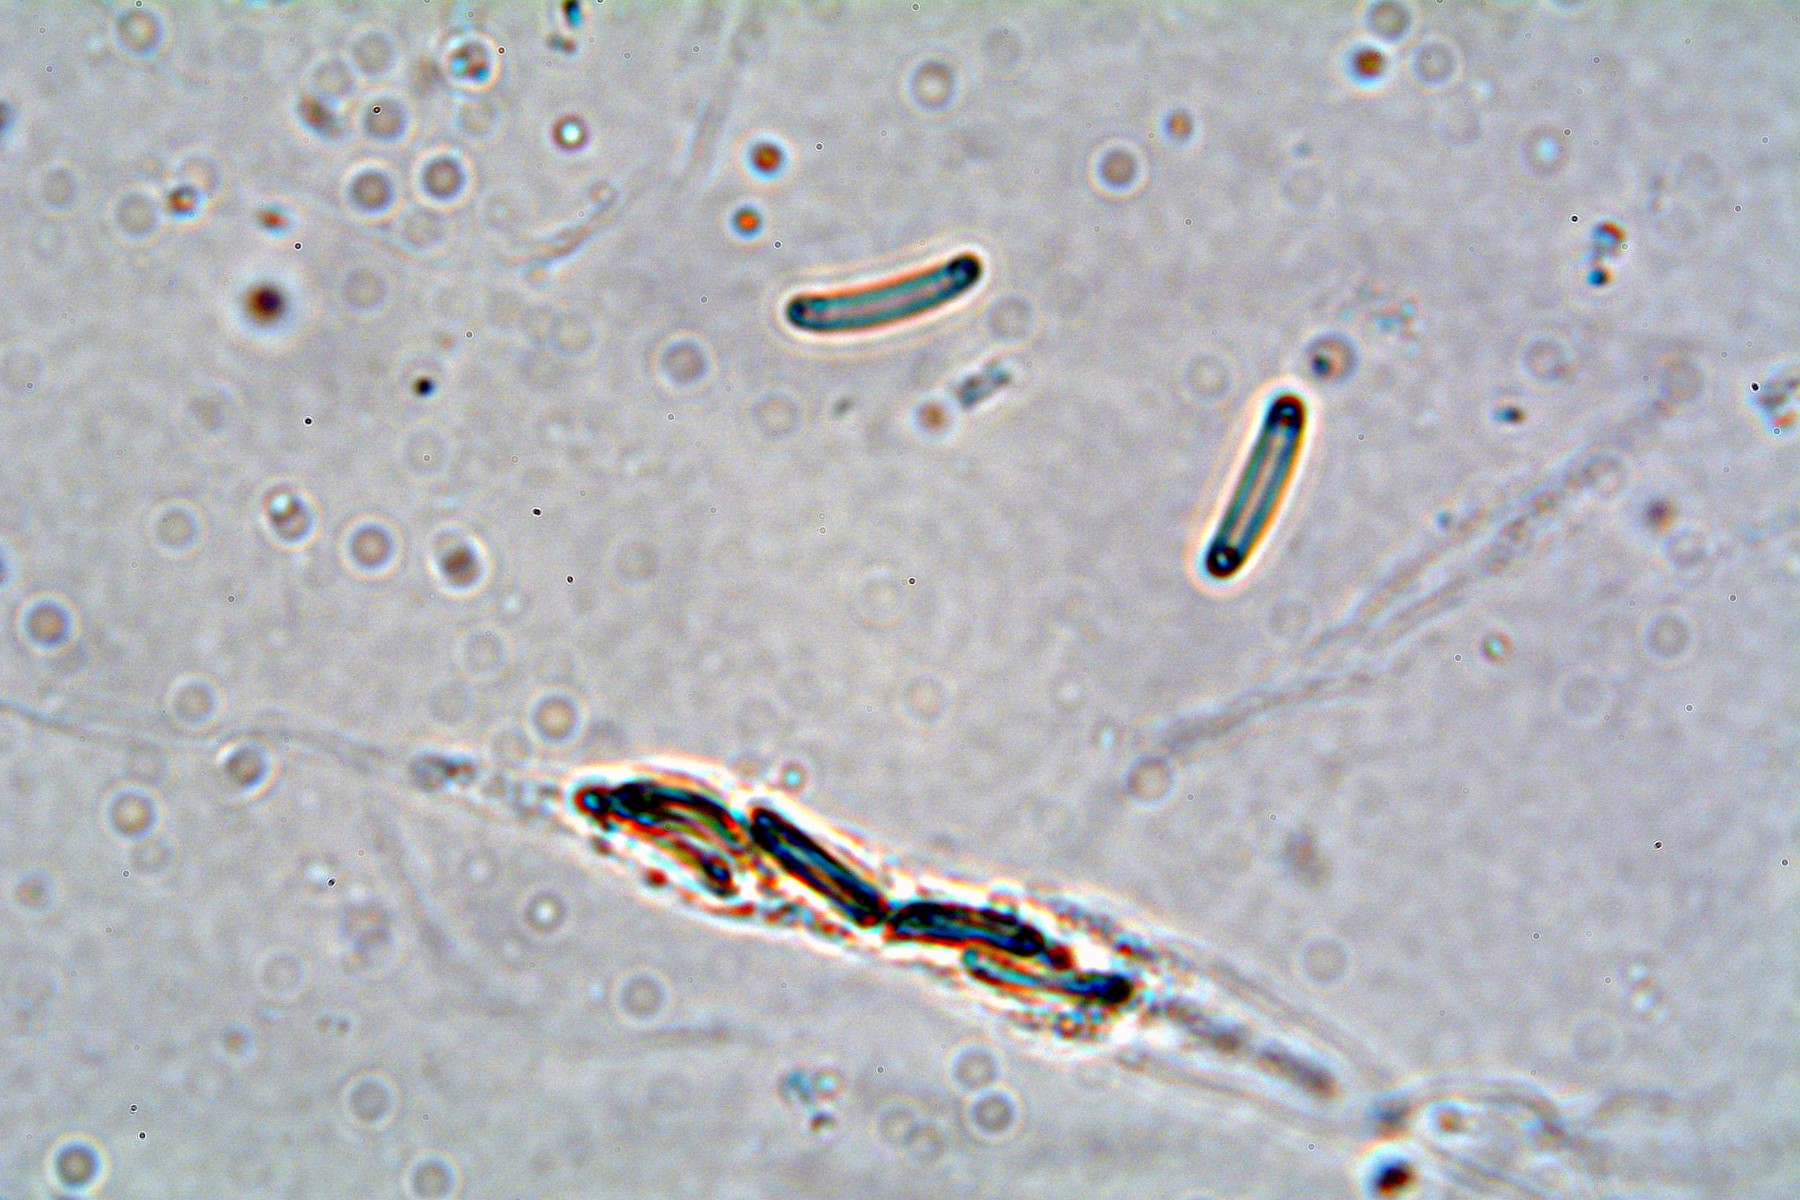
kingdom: Fungi
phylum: Ascomycota
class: Sordariomycetes
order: Xylariales
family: Diatrypaceae
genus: Diatrype
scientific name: Diatrype disciformis
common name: kant-kulskorpe
